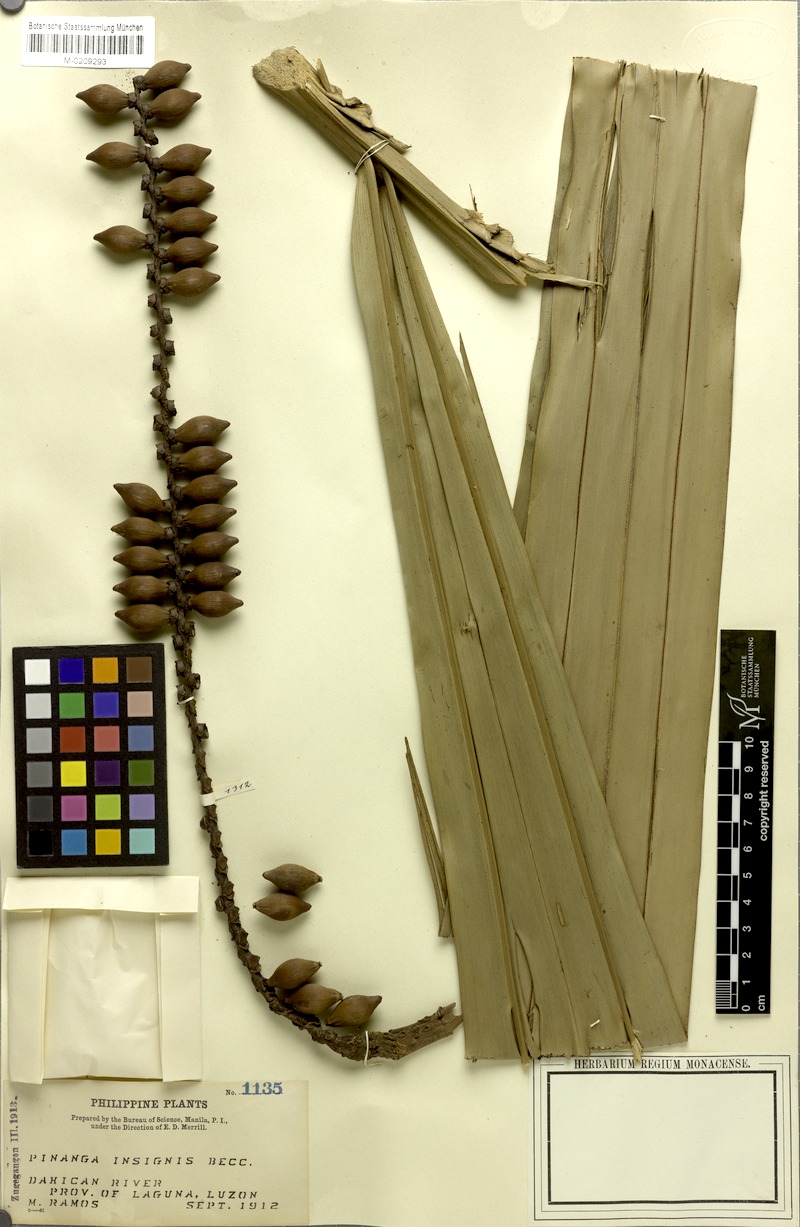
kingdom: Plantae
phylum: Tracheophyta
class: Liliopsida
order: Arecales
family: Arecaceae
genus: Pinanga
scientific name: Pinanga insignis
